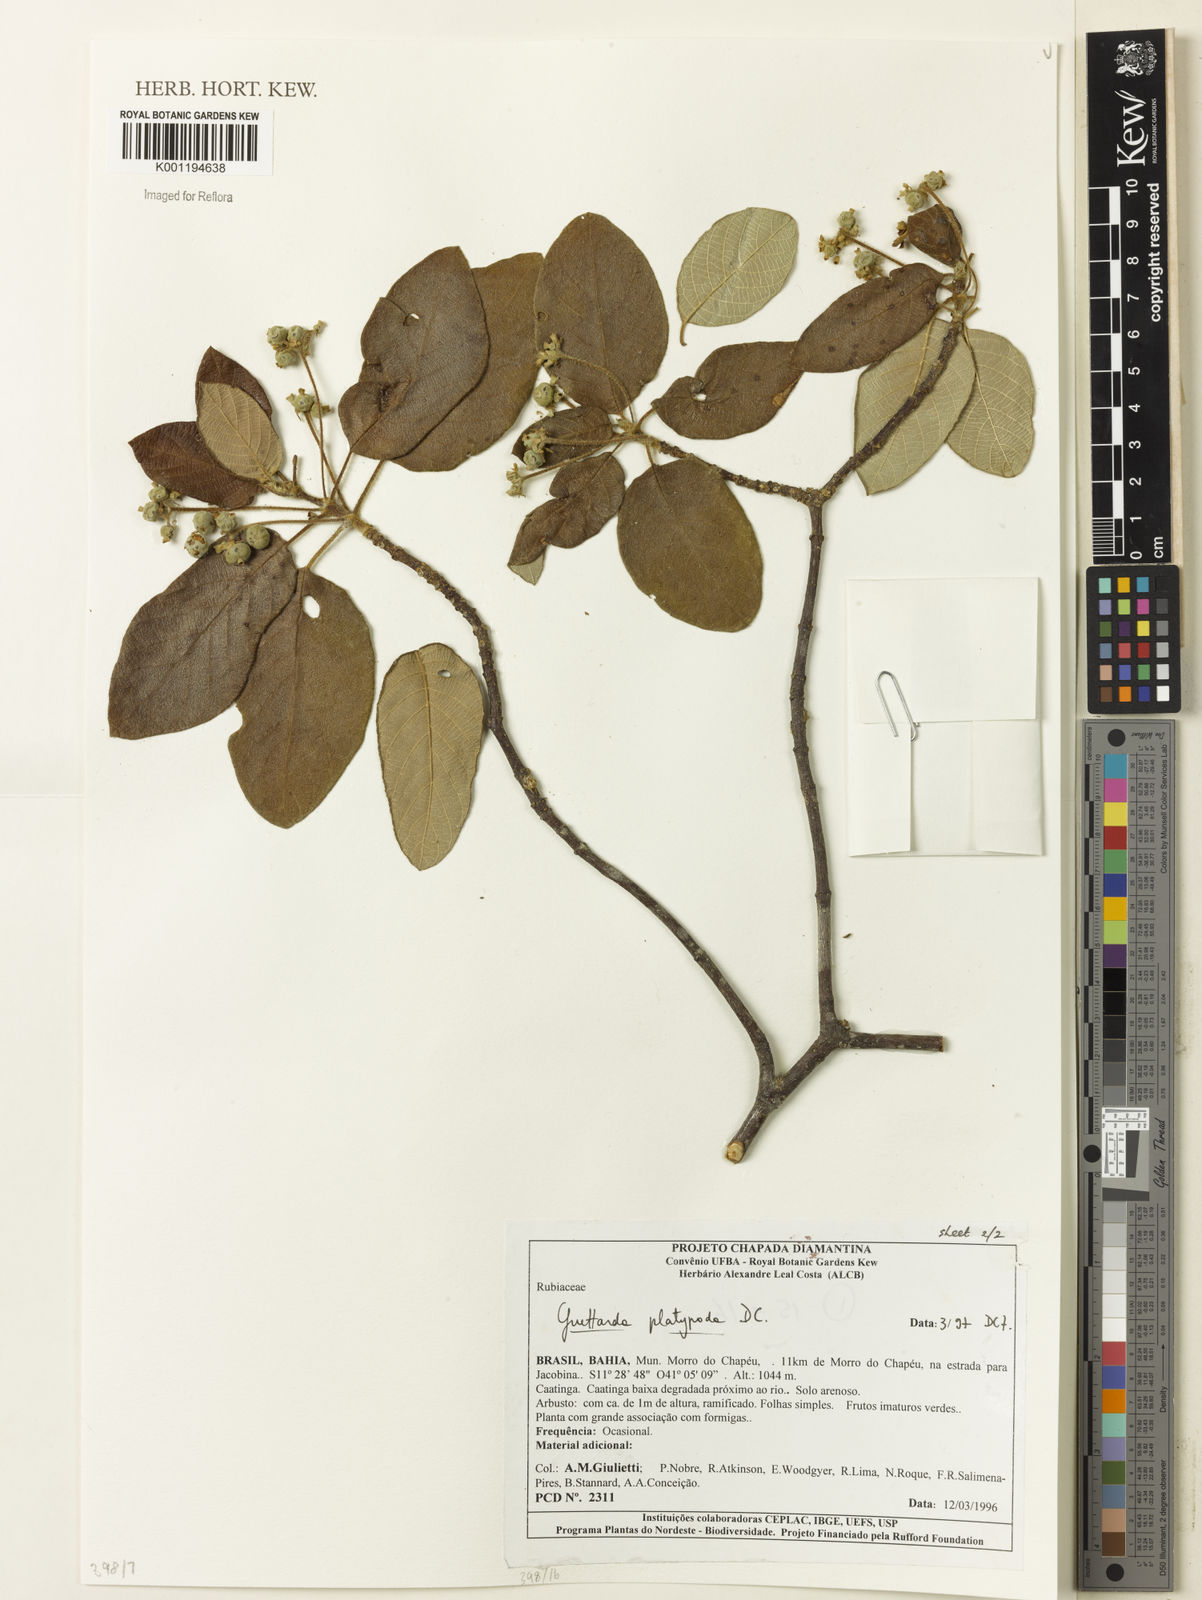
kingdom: Plantae
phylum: Tracheophyta
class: Magnoliopsida
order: Gentianales
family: Rubiaceae
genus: Guettarda
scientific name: Guettarda platypoda
